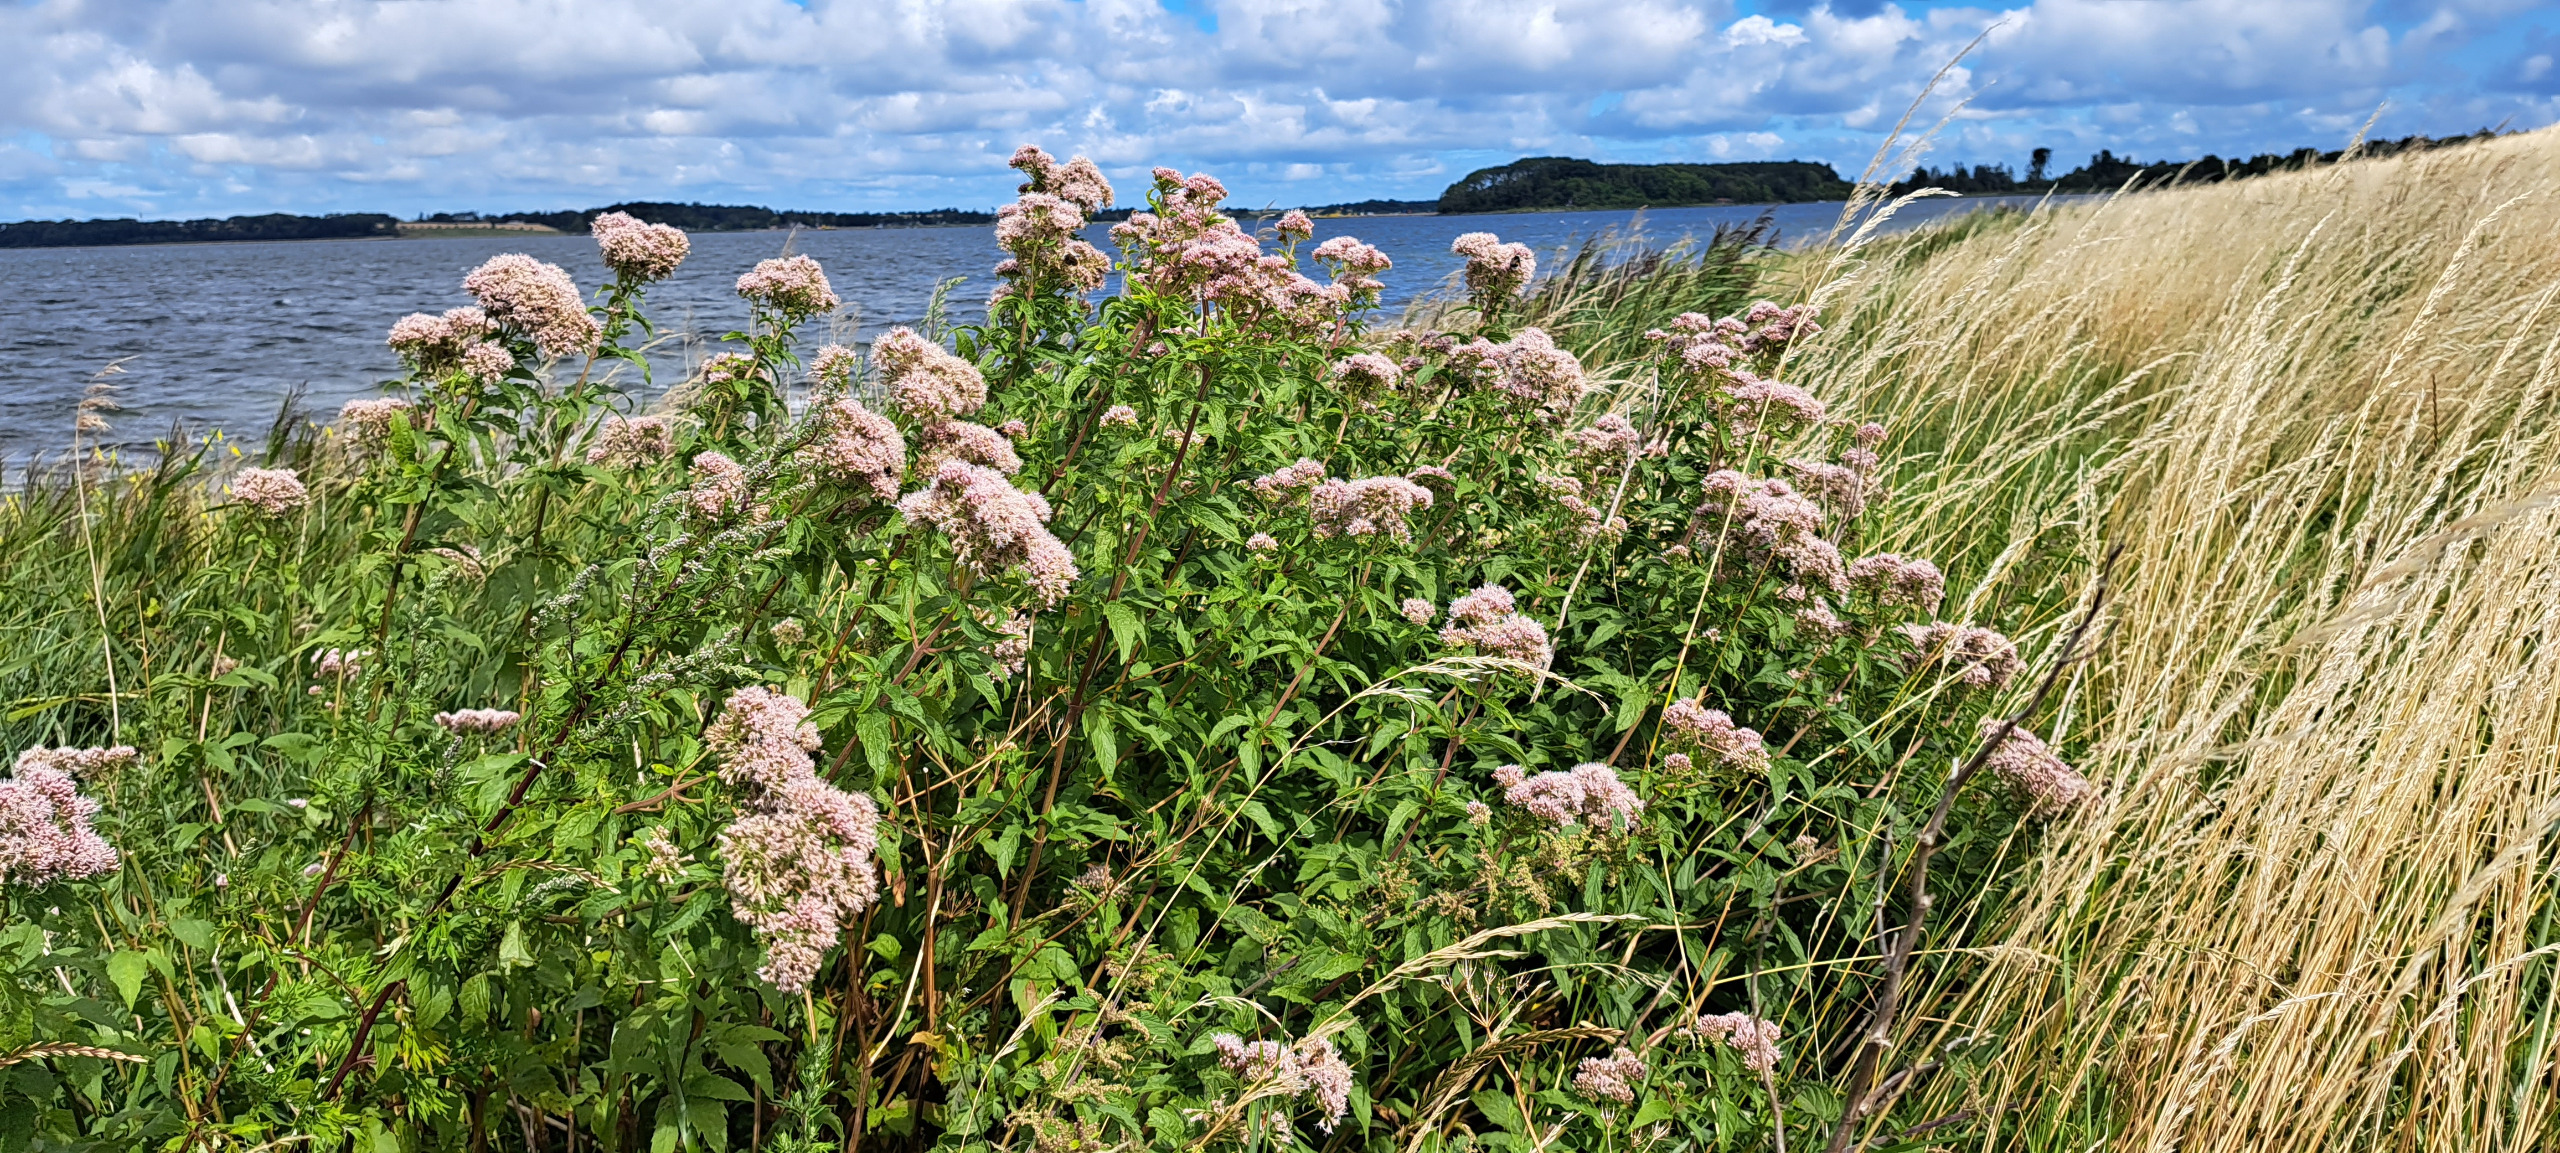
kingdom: Plantae
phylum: Tracheophyta
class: Magnoliopsida
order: Asterales
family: Asteraceae
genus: Eupatorium
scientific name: Eupatorium cannabinum
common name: Hjortetrøst
